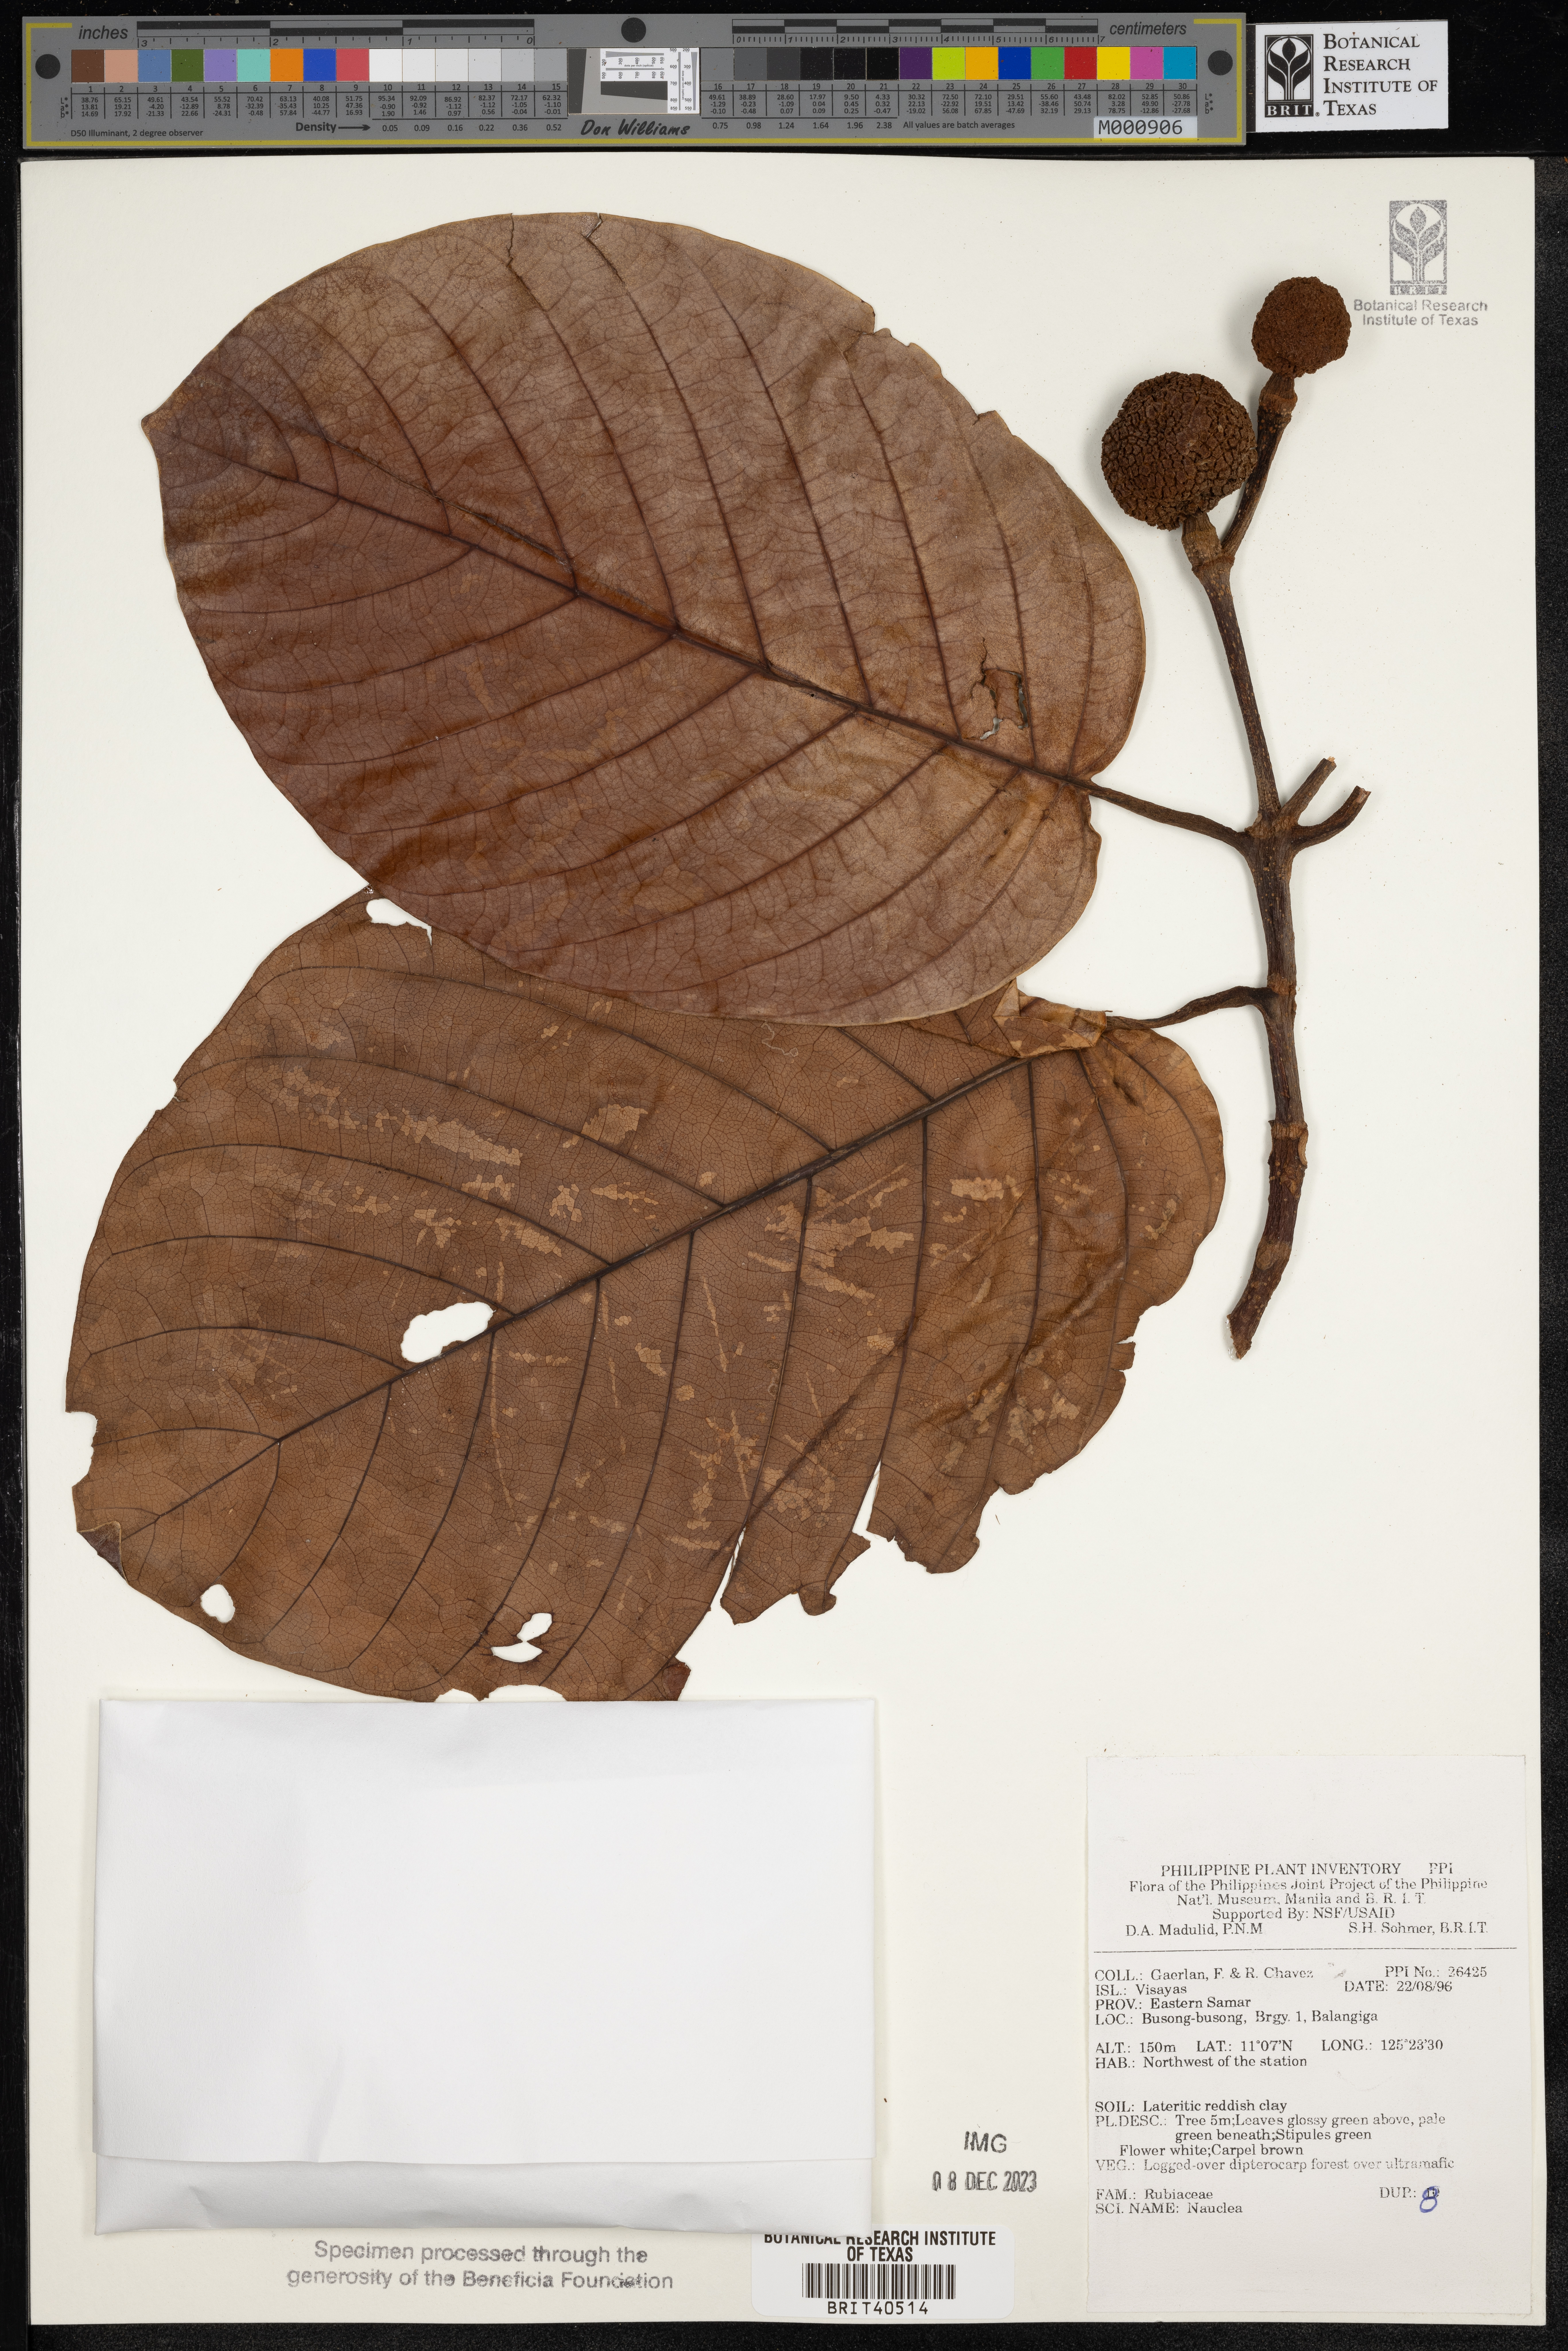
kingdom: Plantae
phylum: Tracheophyta
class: Magnoliopsida
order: Gentianales
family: Rubiaceae
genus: Nauclea
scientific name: Nauclea
